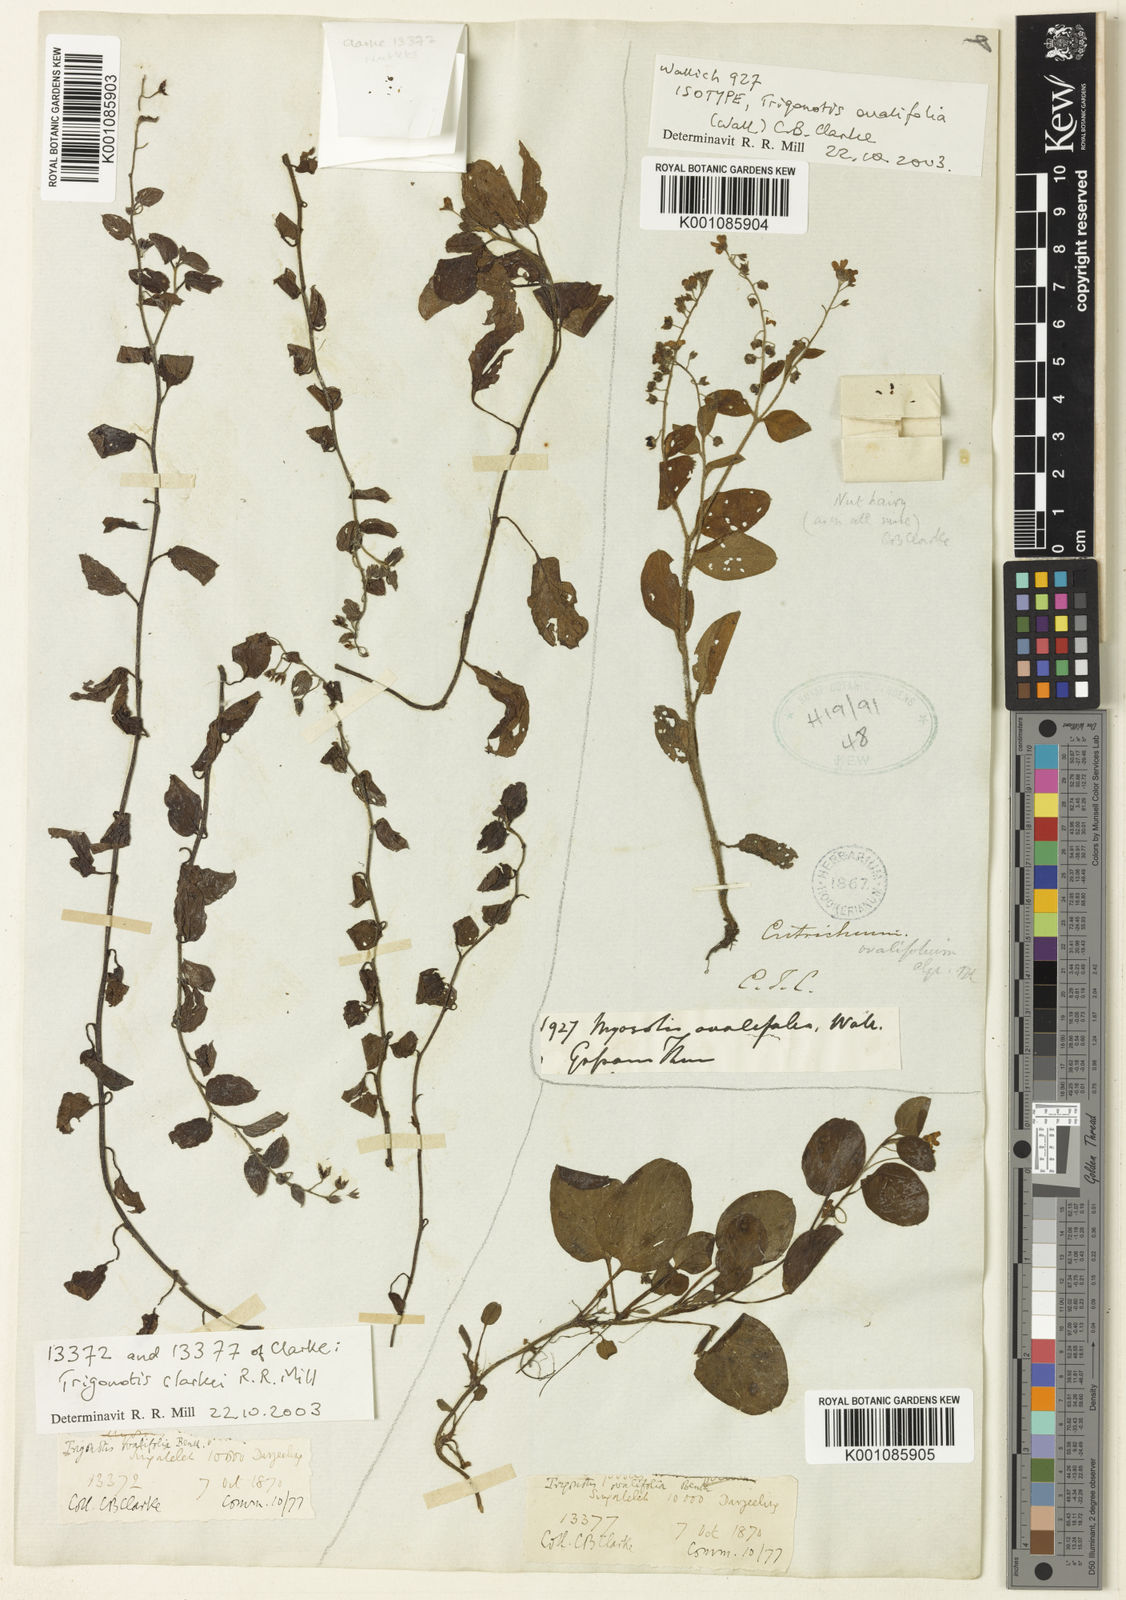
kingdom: Plantae
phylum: Tracheophyta
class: Magnoliopsida
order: Boraginales
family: Boraginaceae
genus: Trigonotis
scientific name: Trigonotis clarkei
